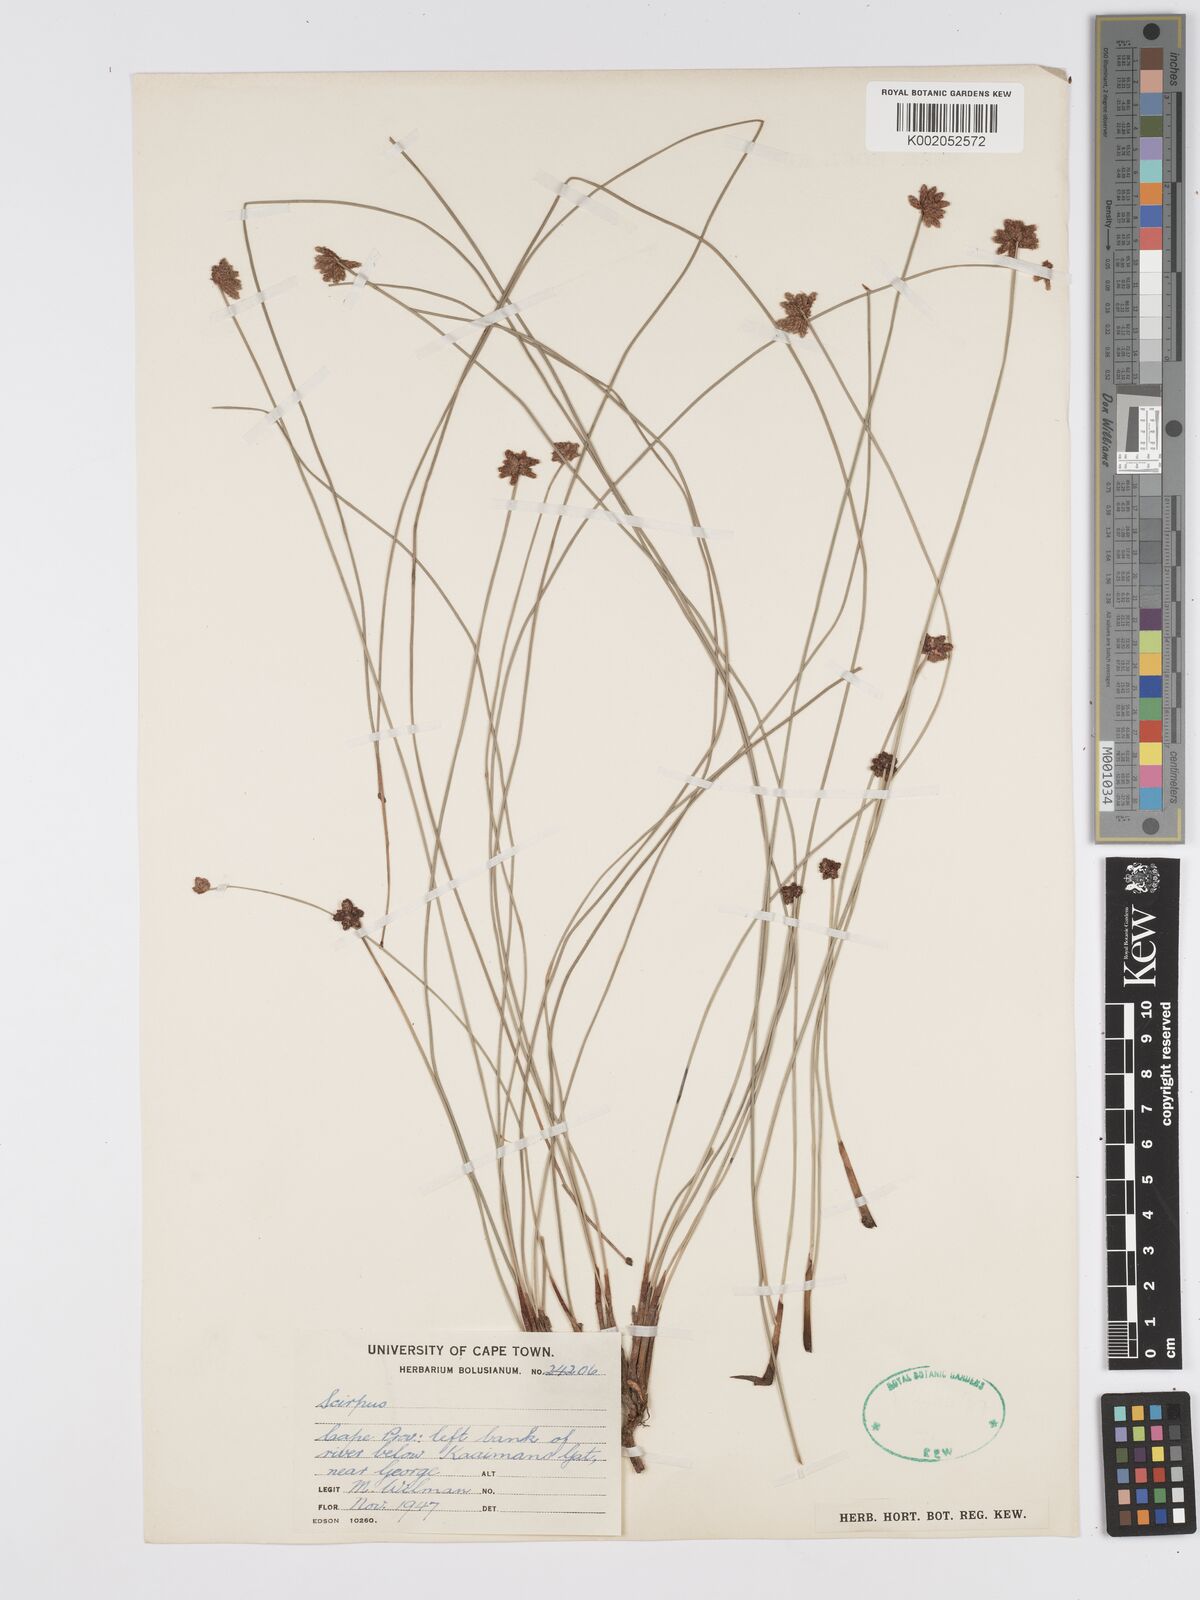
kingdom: Plantae
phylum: Tracheophyta
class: Liliopsida
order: Poales
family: Cyperaceae
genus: Scirpus
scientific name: Scirpus
